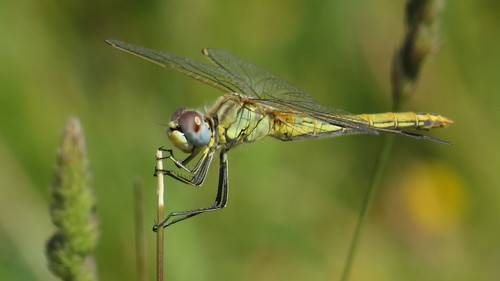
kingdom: Animalia
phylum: Arthropoda
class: Insecta
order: Odonata
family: Libellulidae
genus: Sympetrum
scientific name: Sympetrum fonscolombii
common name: Red-veined darter
